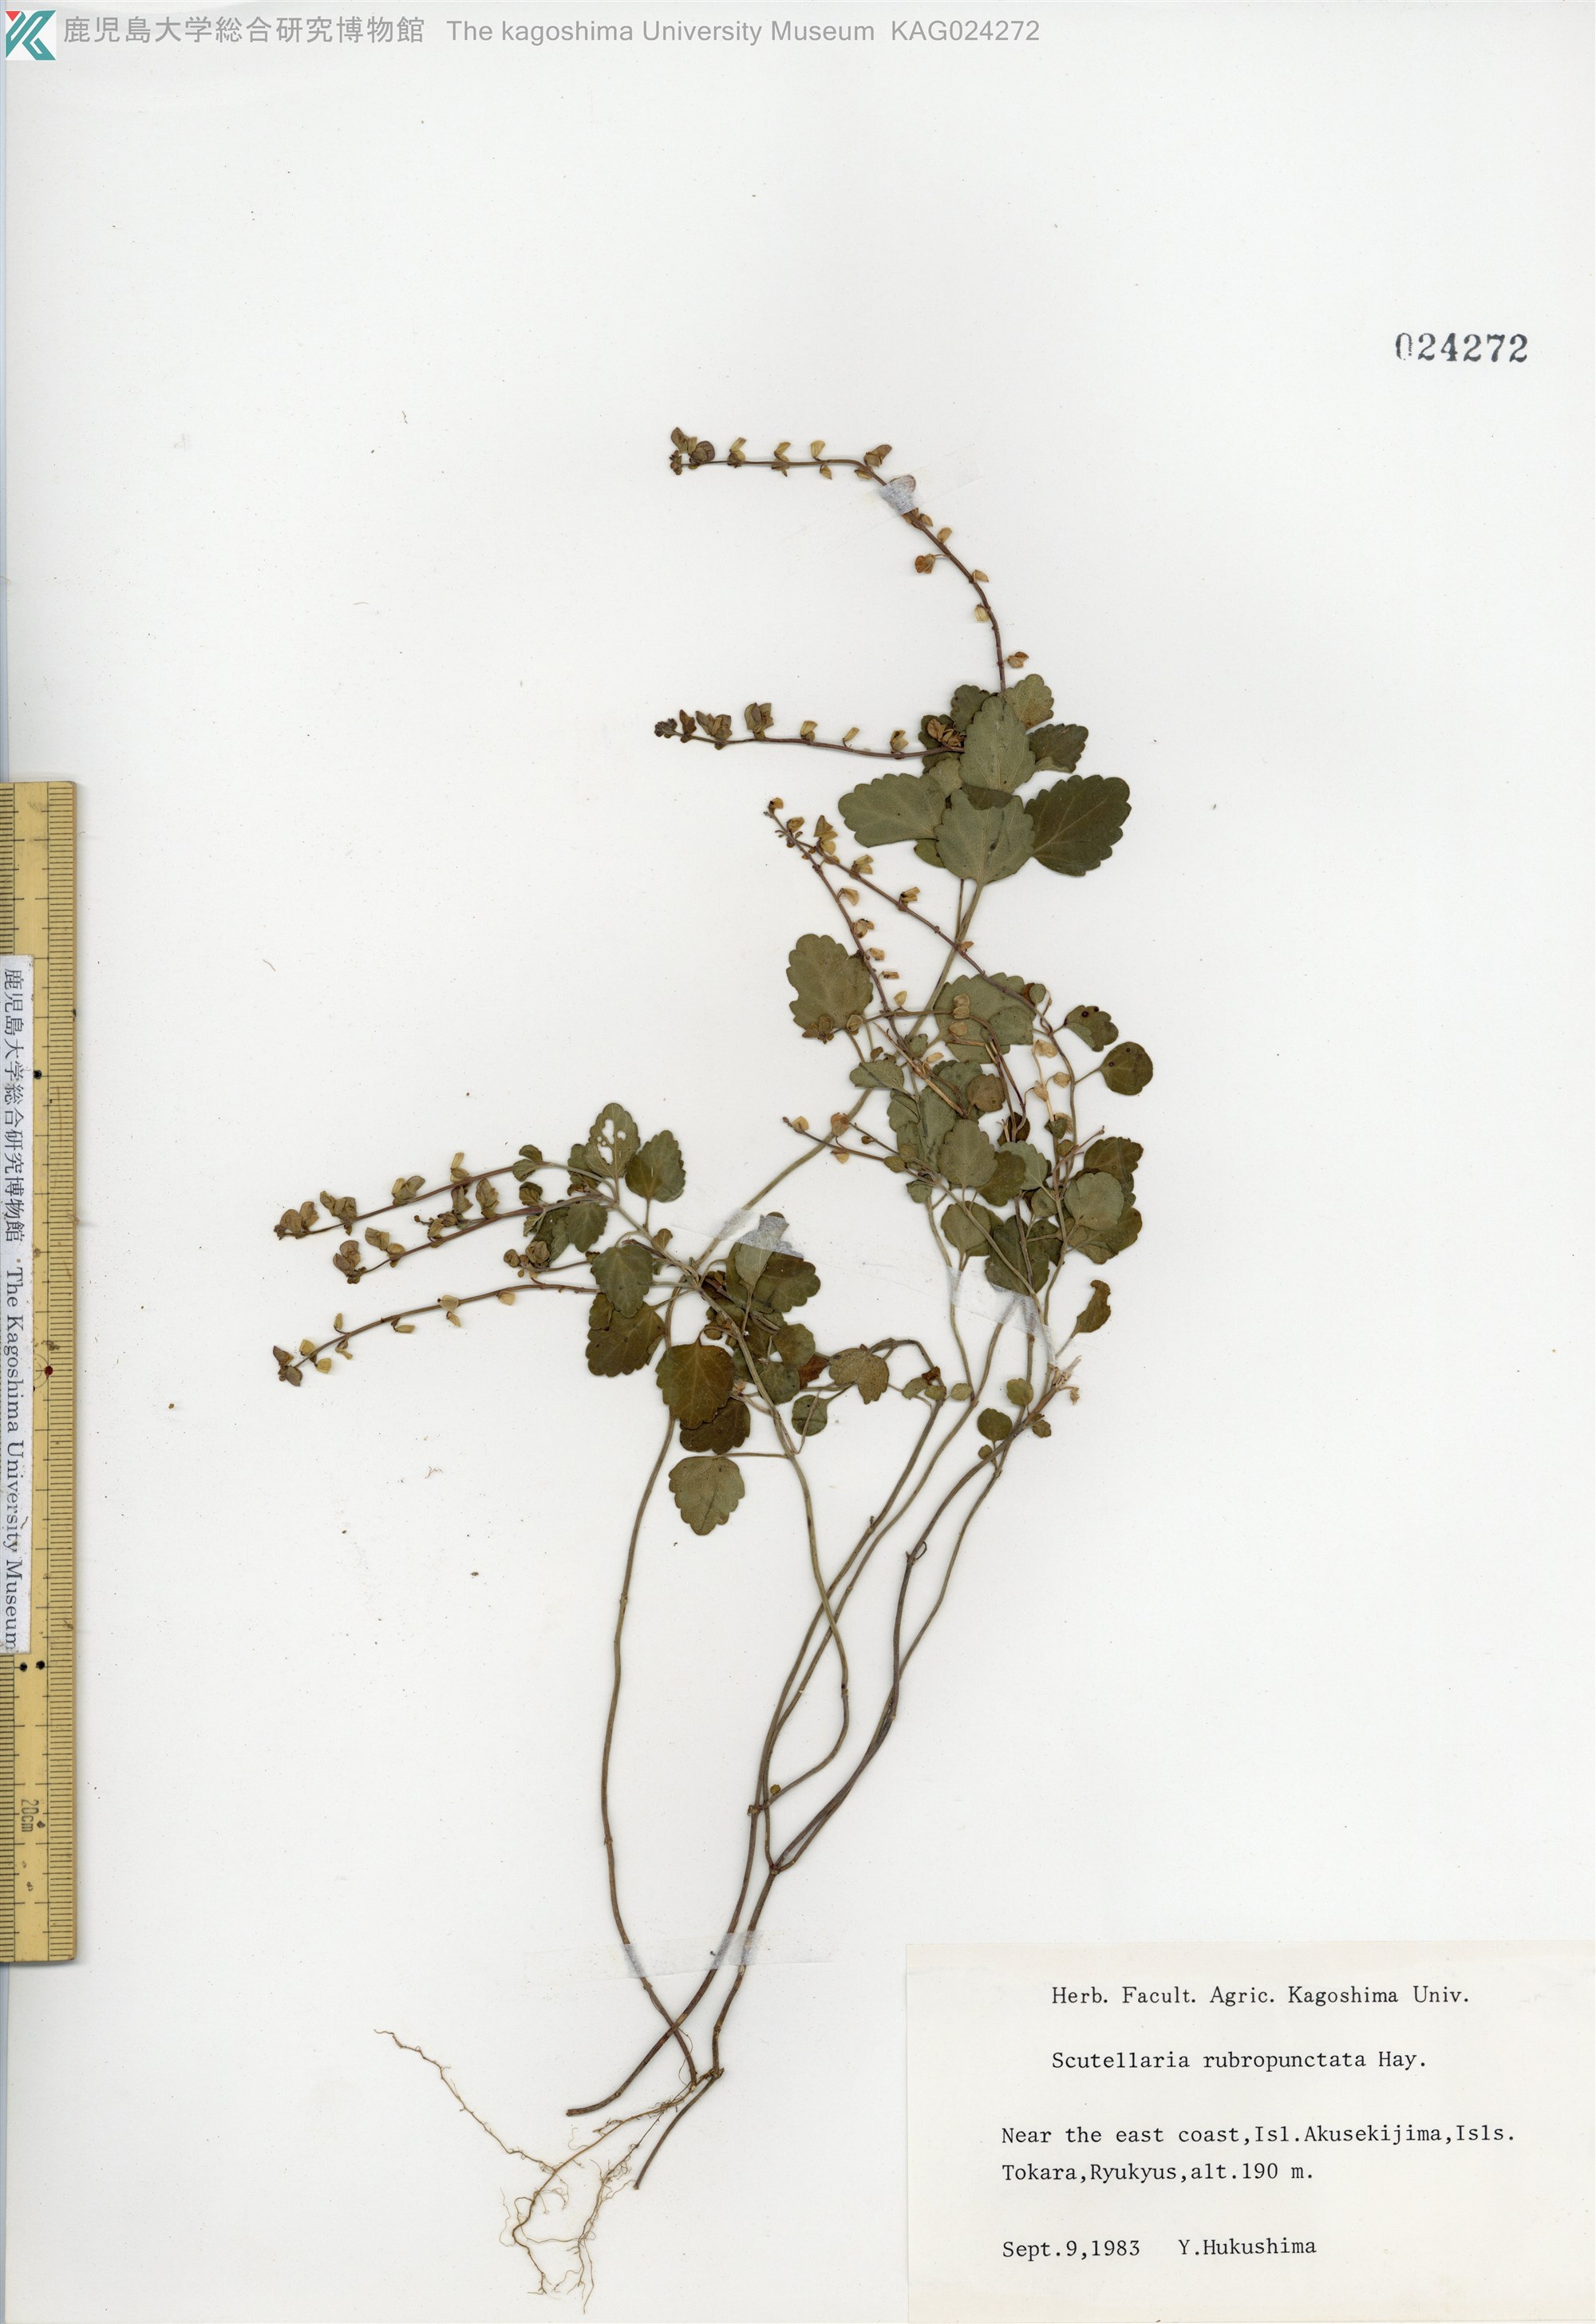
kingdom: Plantae
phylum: Tracheophyta
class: Magnoliopsida
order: Lamiales
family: Lamiaceae
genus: Scutellaria
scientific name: Scutellaria rubropunctata
